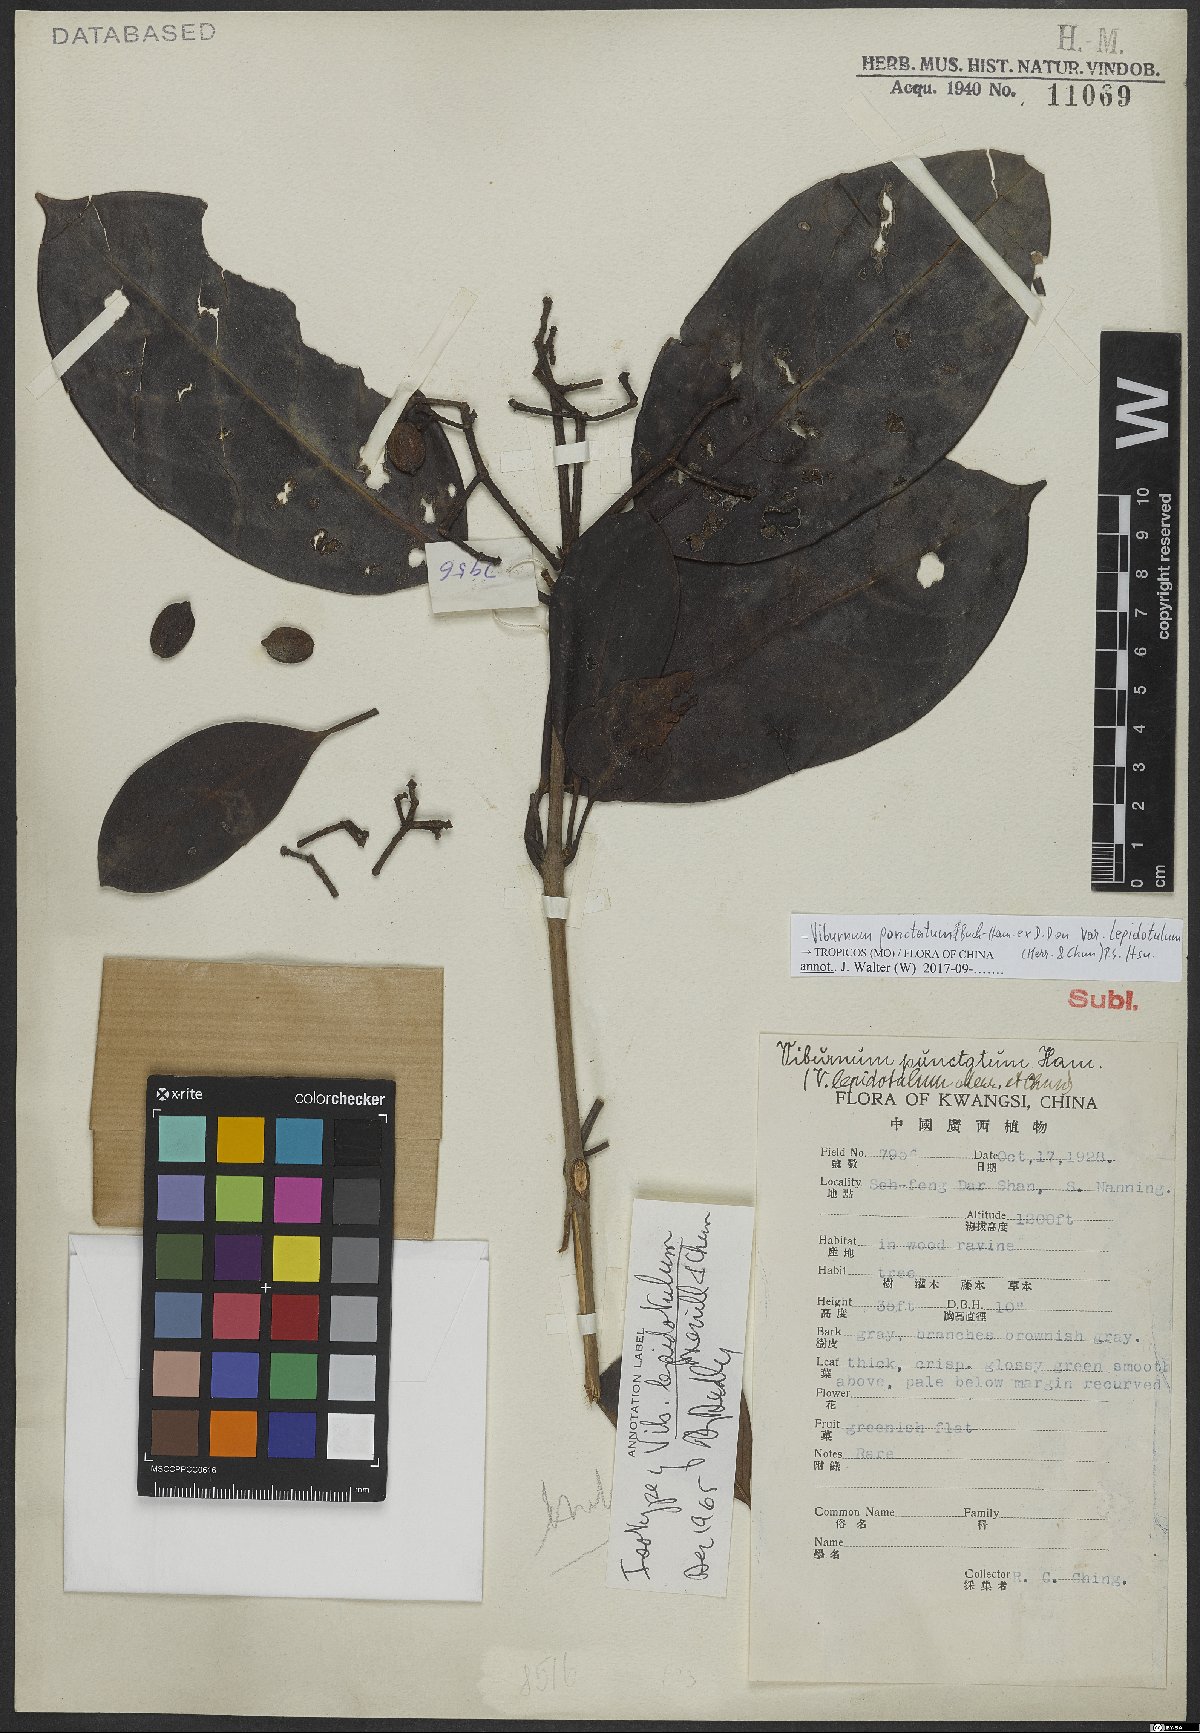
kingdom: Plantae
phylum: Tracheophyta
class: Magnoliopsida
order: Dipsacales
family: Viburnaceae
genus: Viburnum
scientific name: Viburnum punctatum
